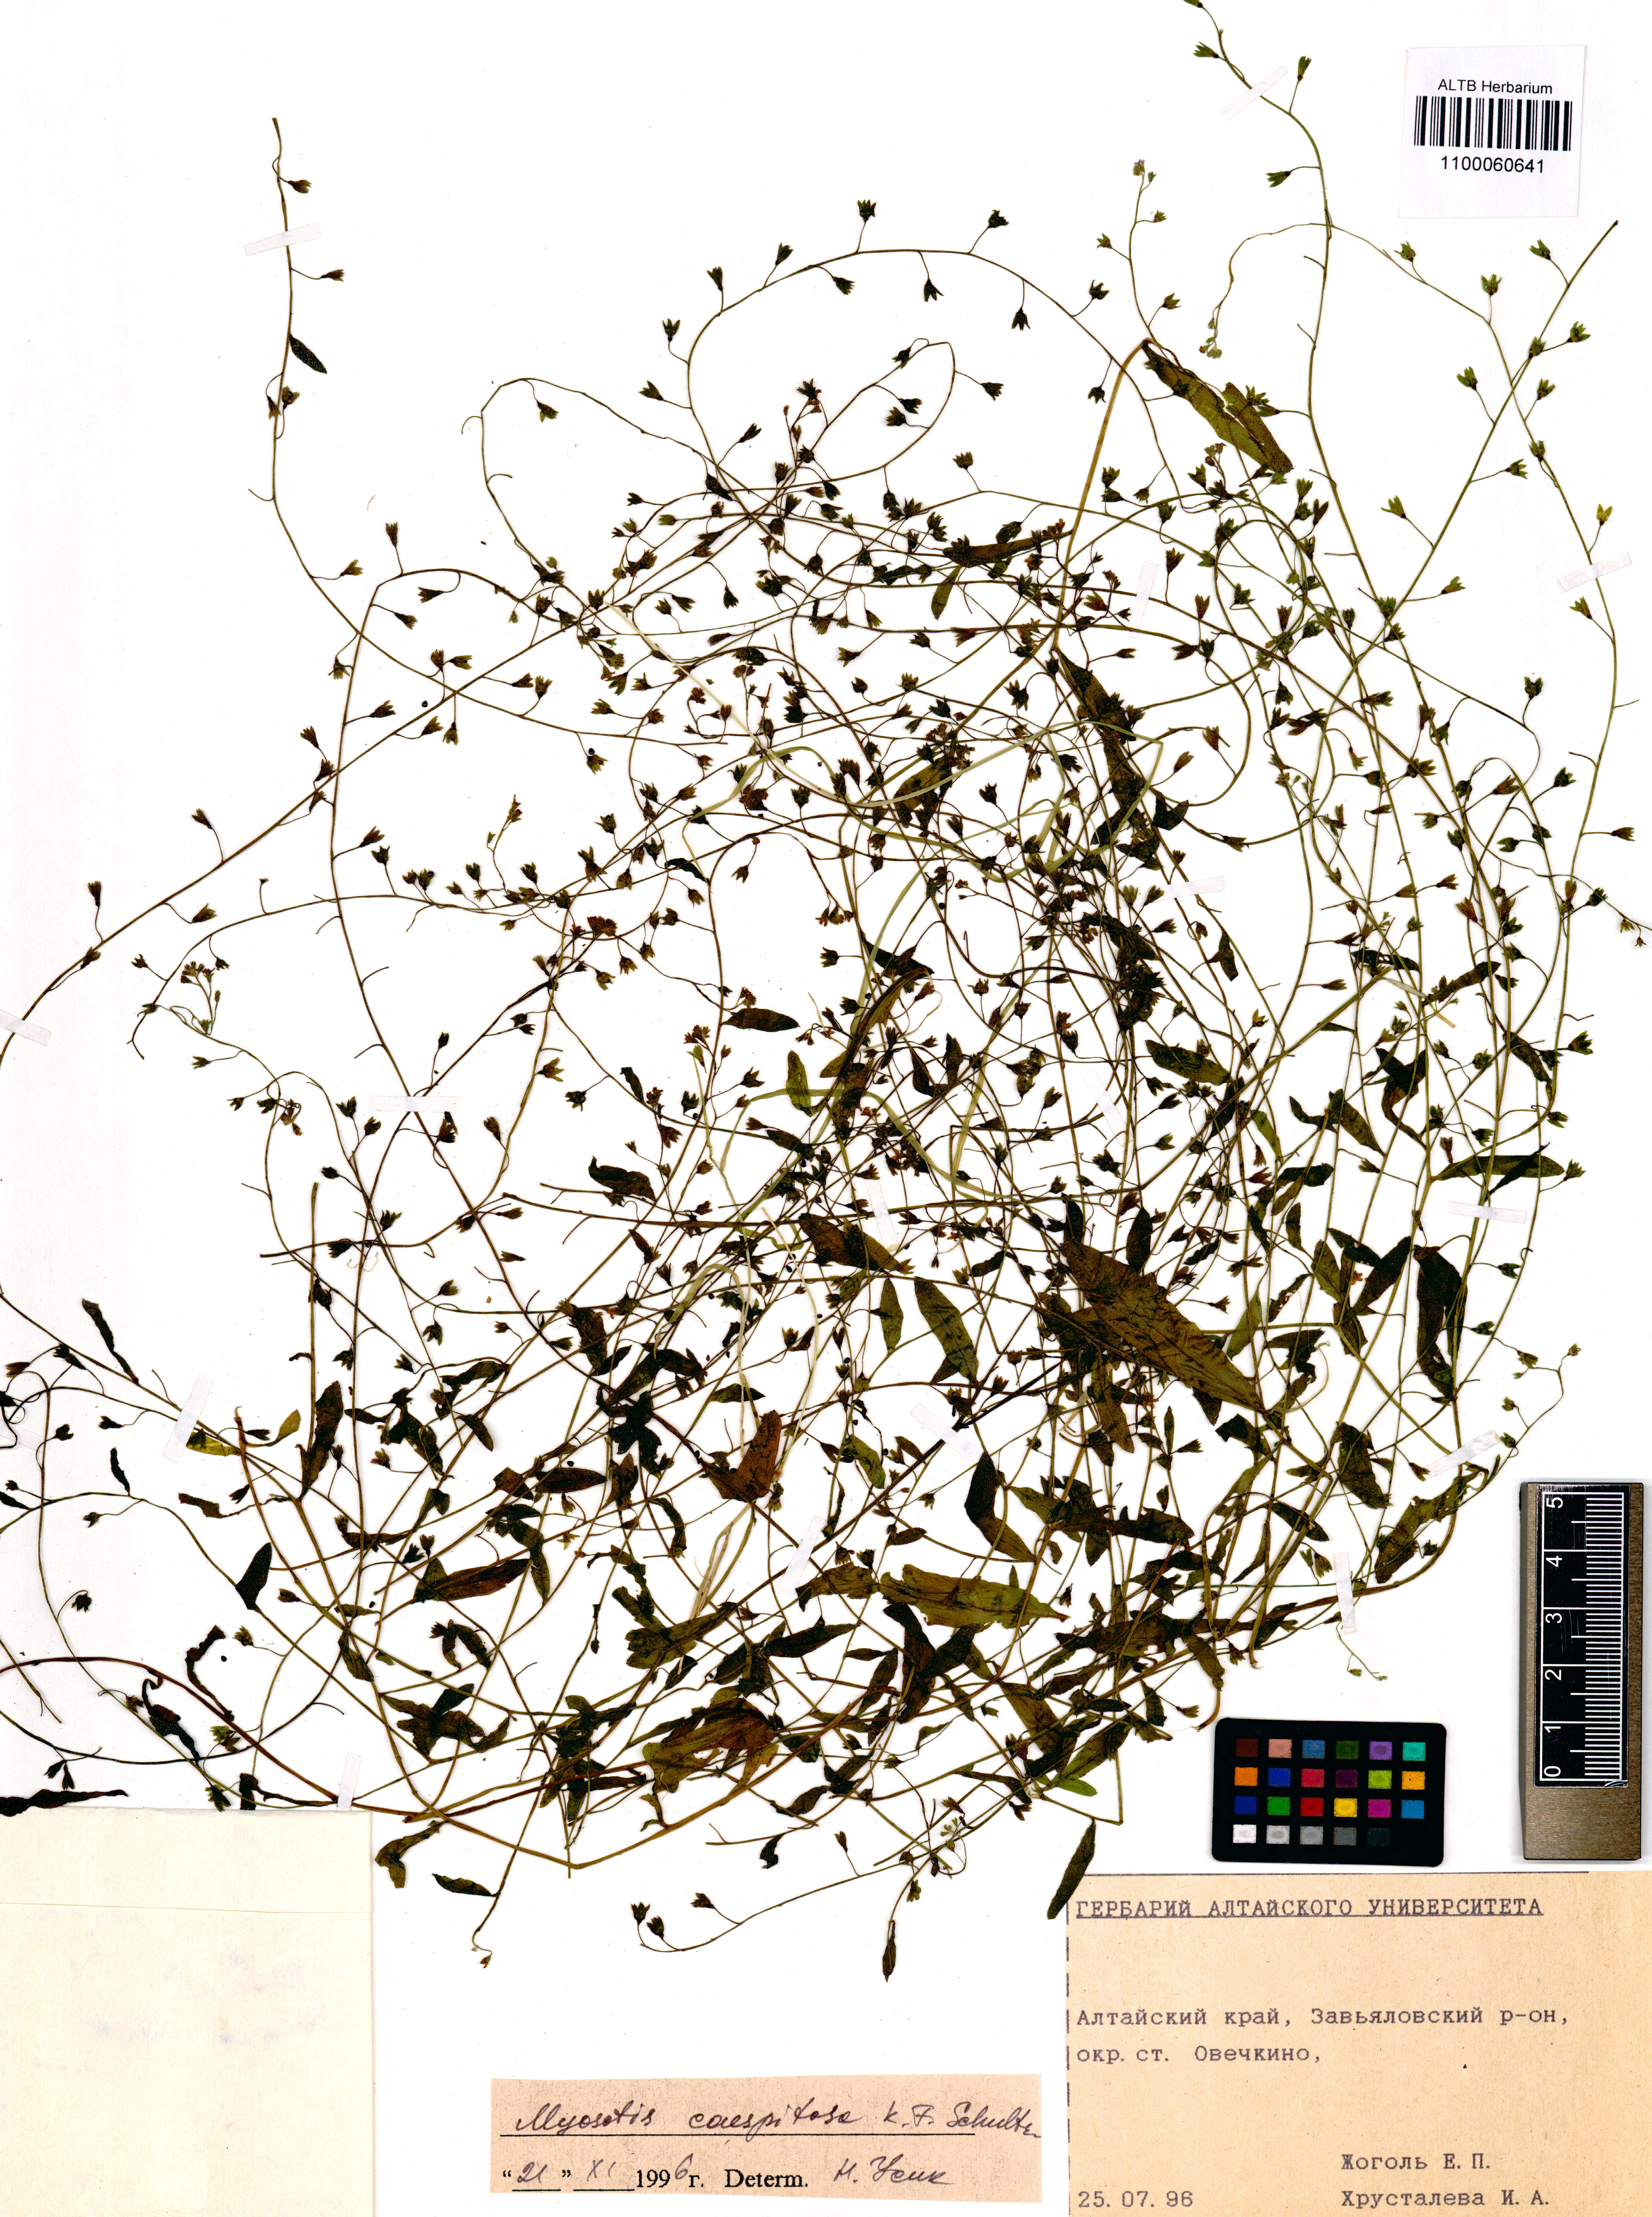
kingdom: Plantae
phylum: Tracheophyta
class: Magnoliopsida
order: Boraginales
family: Boraginaceae
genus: Myosotis
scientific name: Myosotis laxa
